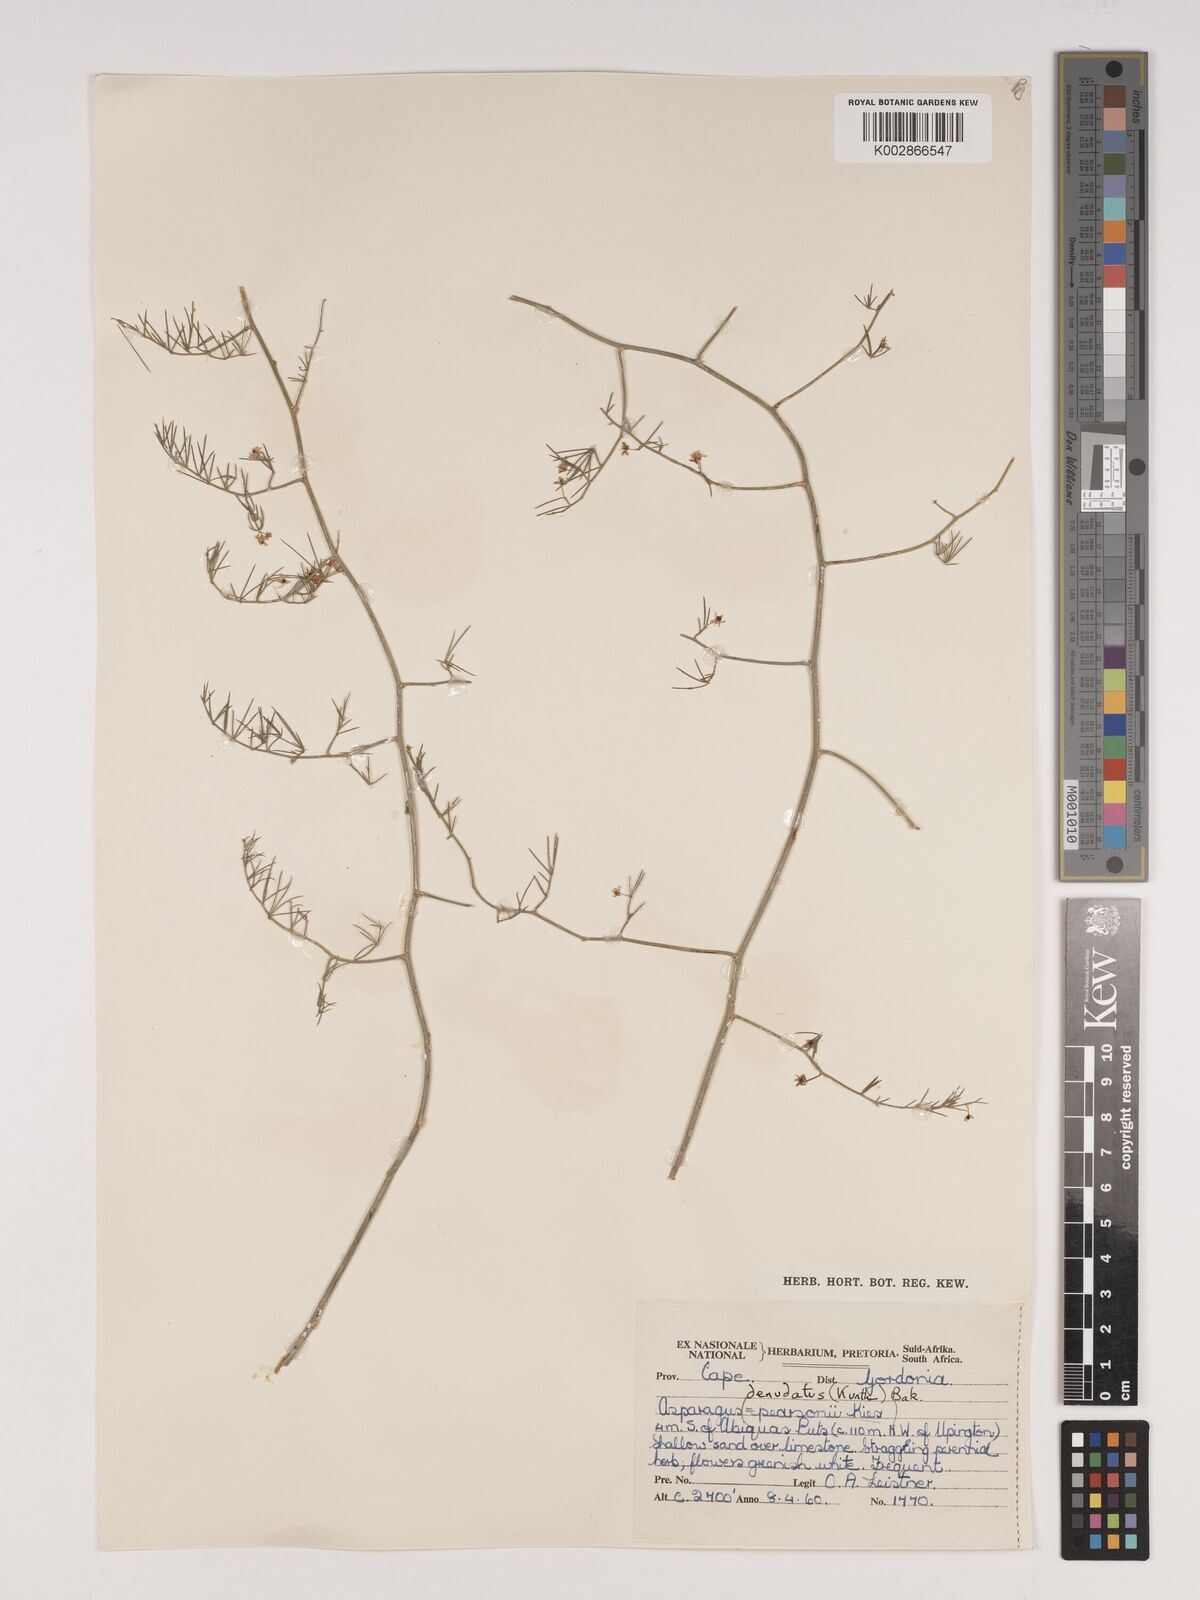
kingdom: Plantae
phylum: Tracheophyta
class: Liliopsida
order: Asparagales
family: Asparagaceae
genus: Asparagus
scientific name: Asparagus denudatus
